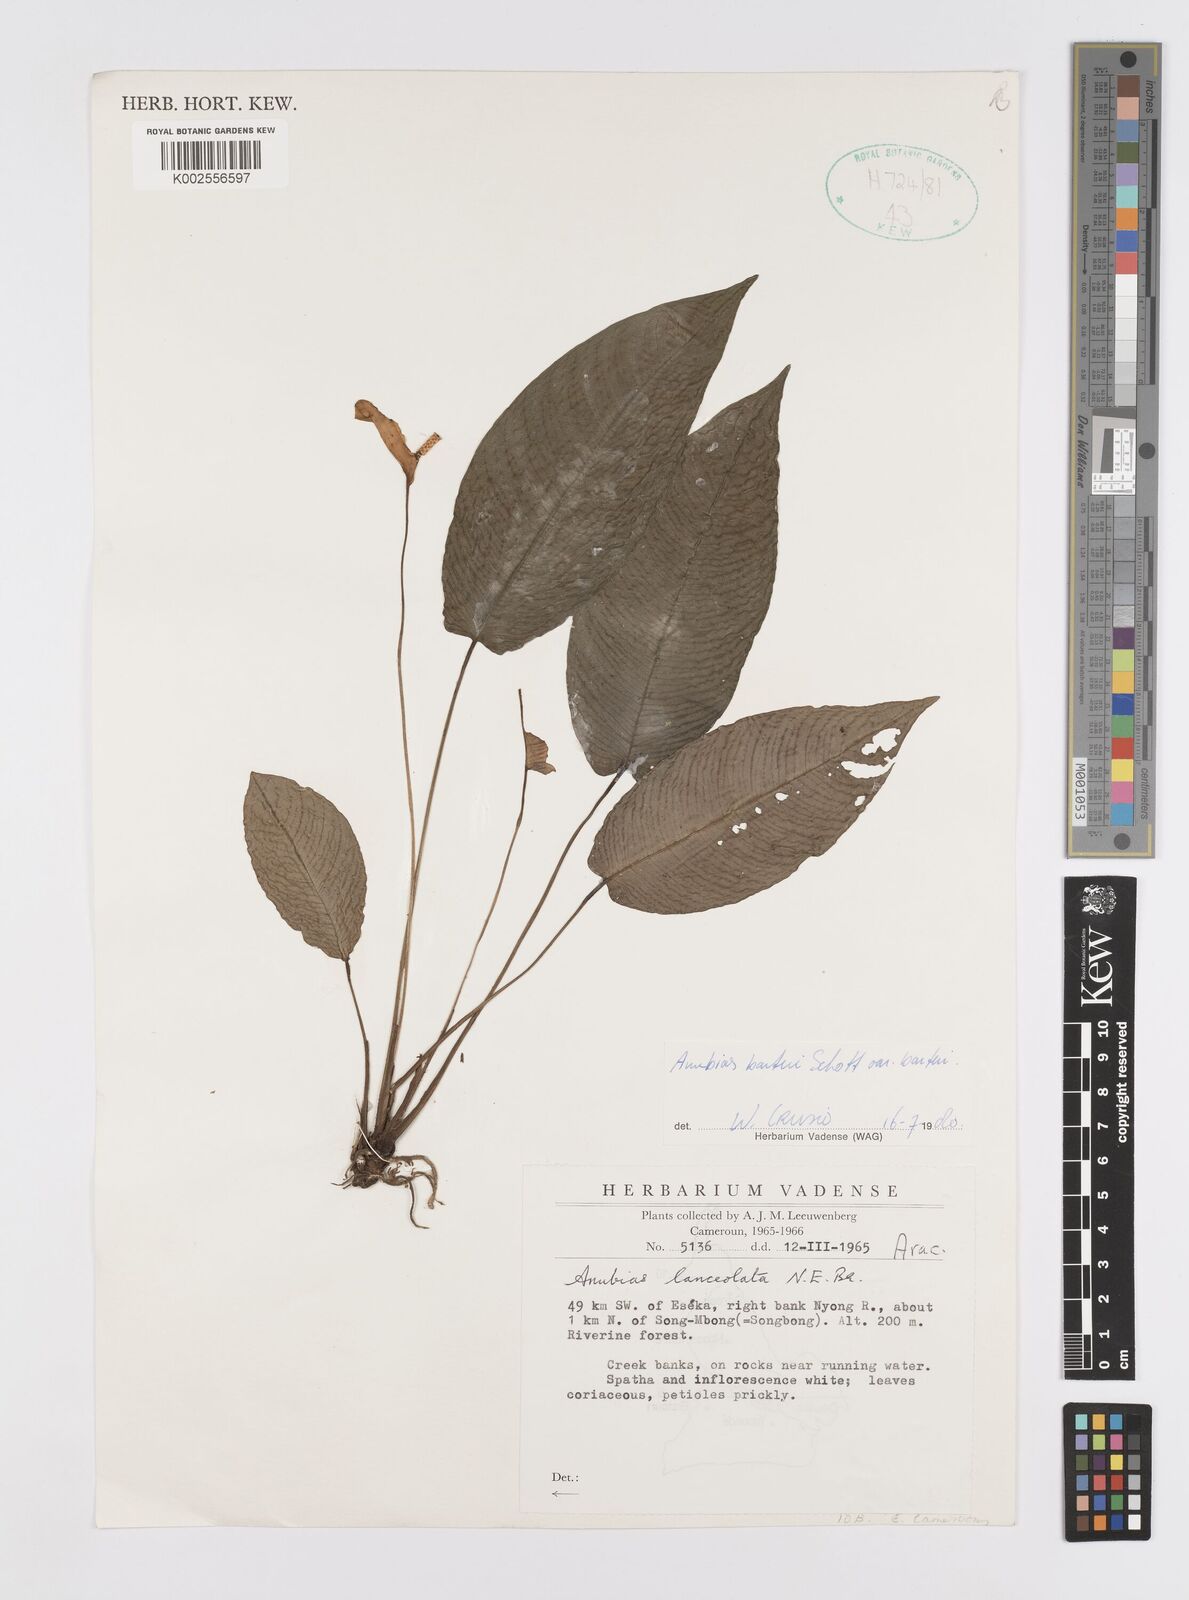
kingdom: Plantae
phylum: Tracheophyta
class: Liliopsida
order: Alismatales
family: Araceae
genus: Anubias
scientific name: Anubias barteri
